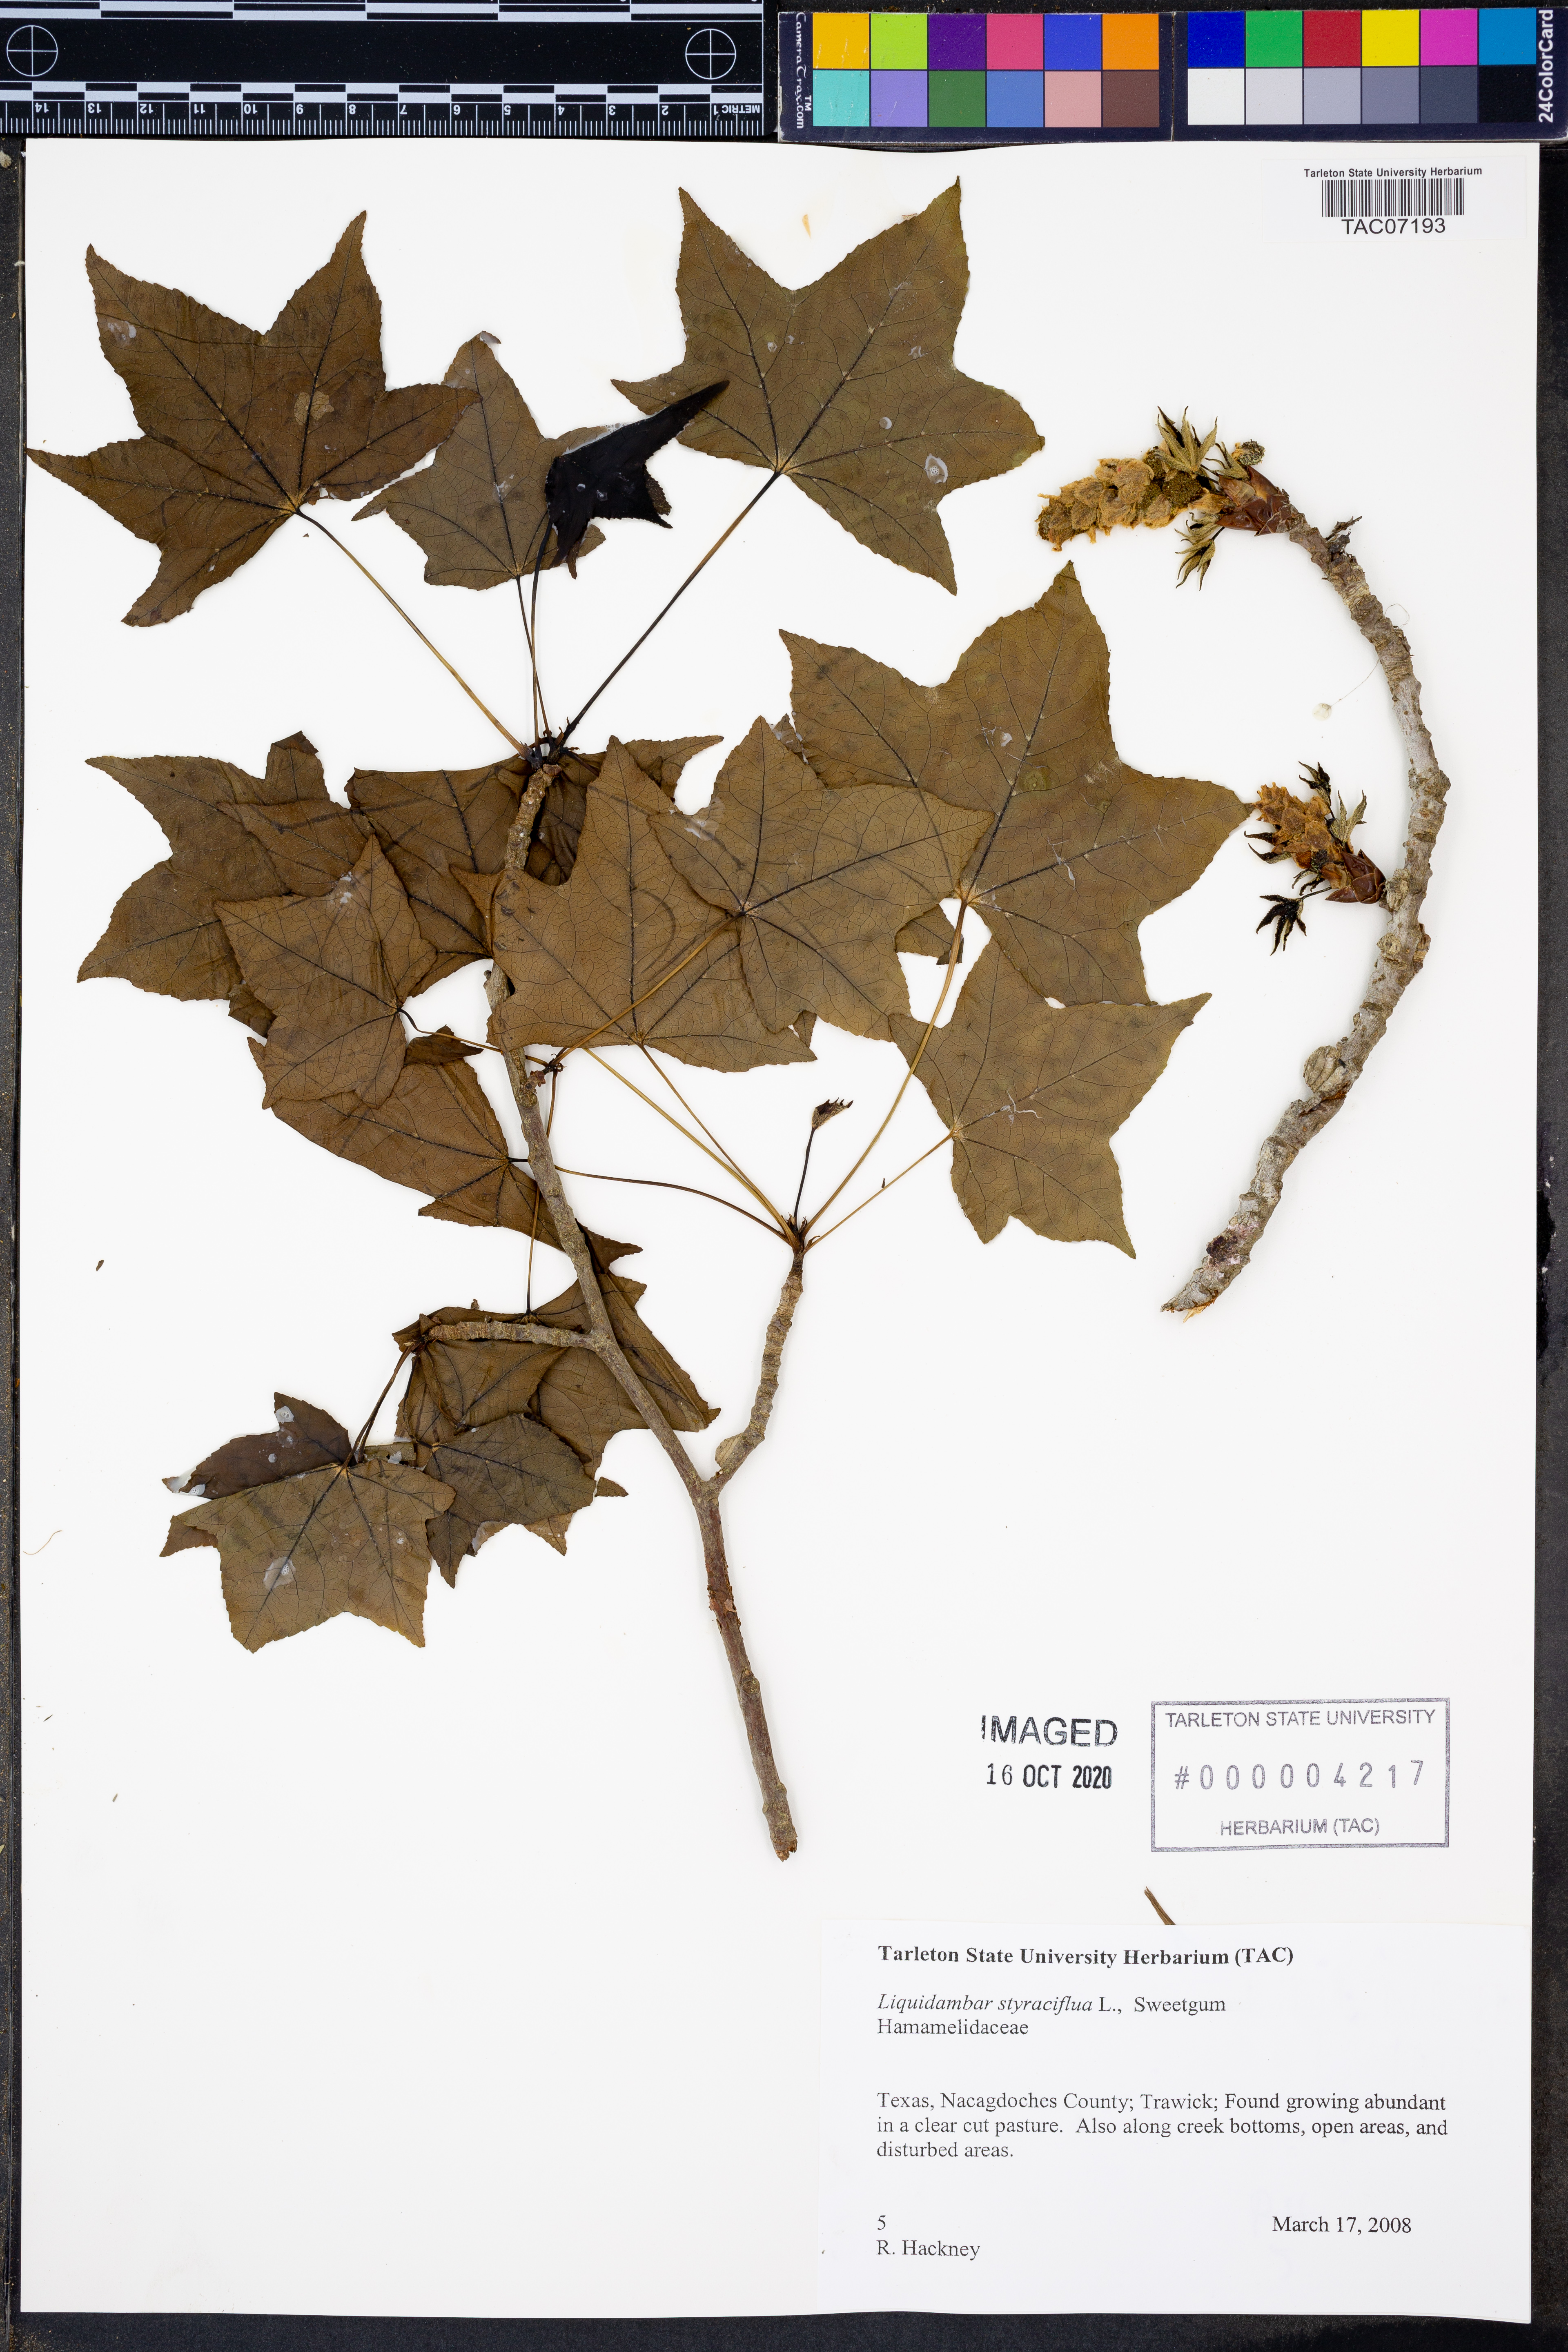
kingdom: Plantae
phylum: Tracheophyta
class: Magnoliopsida
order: Saxifragales
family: Altingiaceae
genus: Liquidambar
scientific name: Liquidambar styraciflua
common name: Sweet gum
